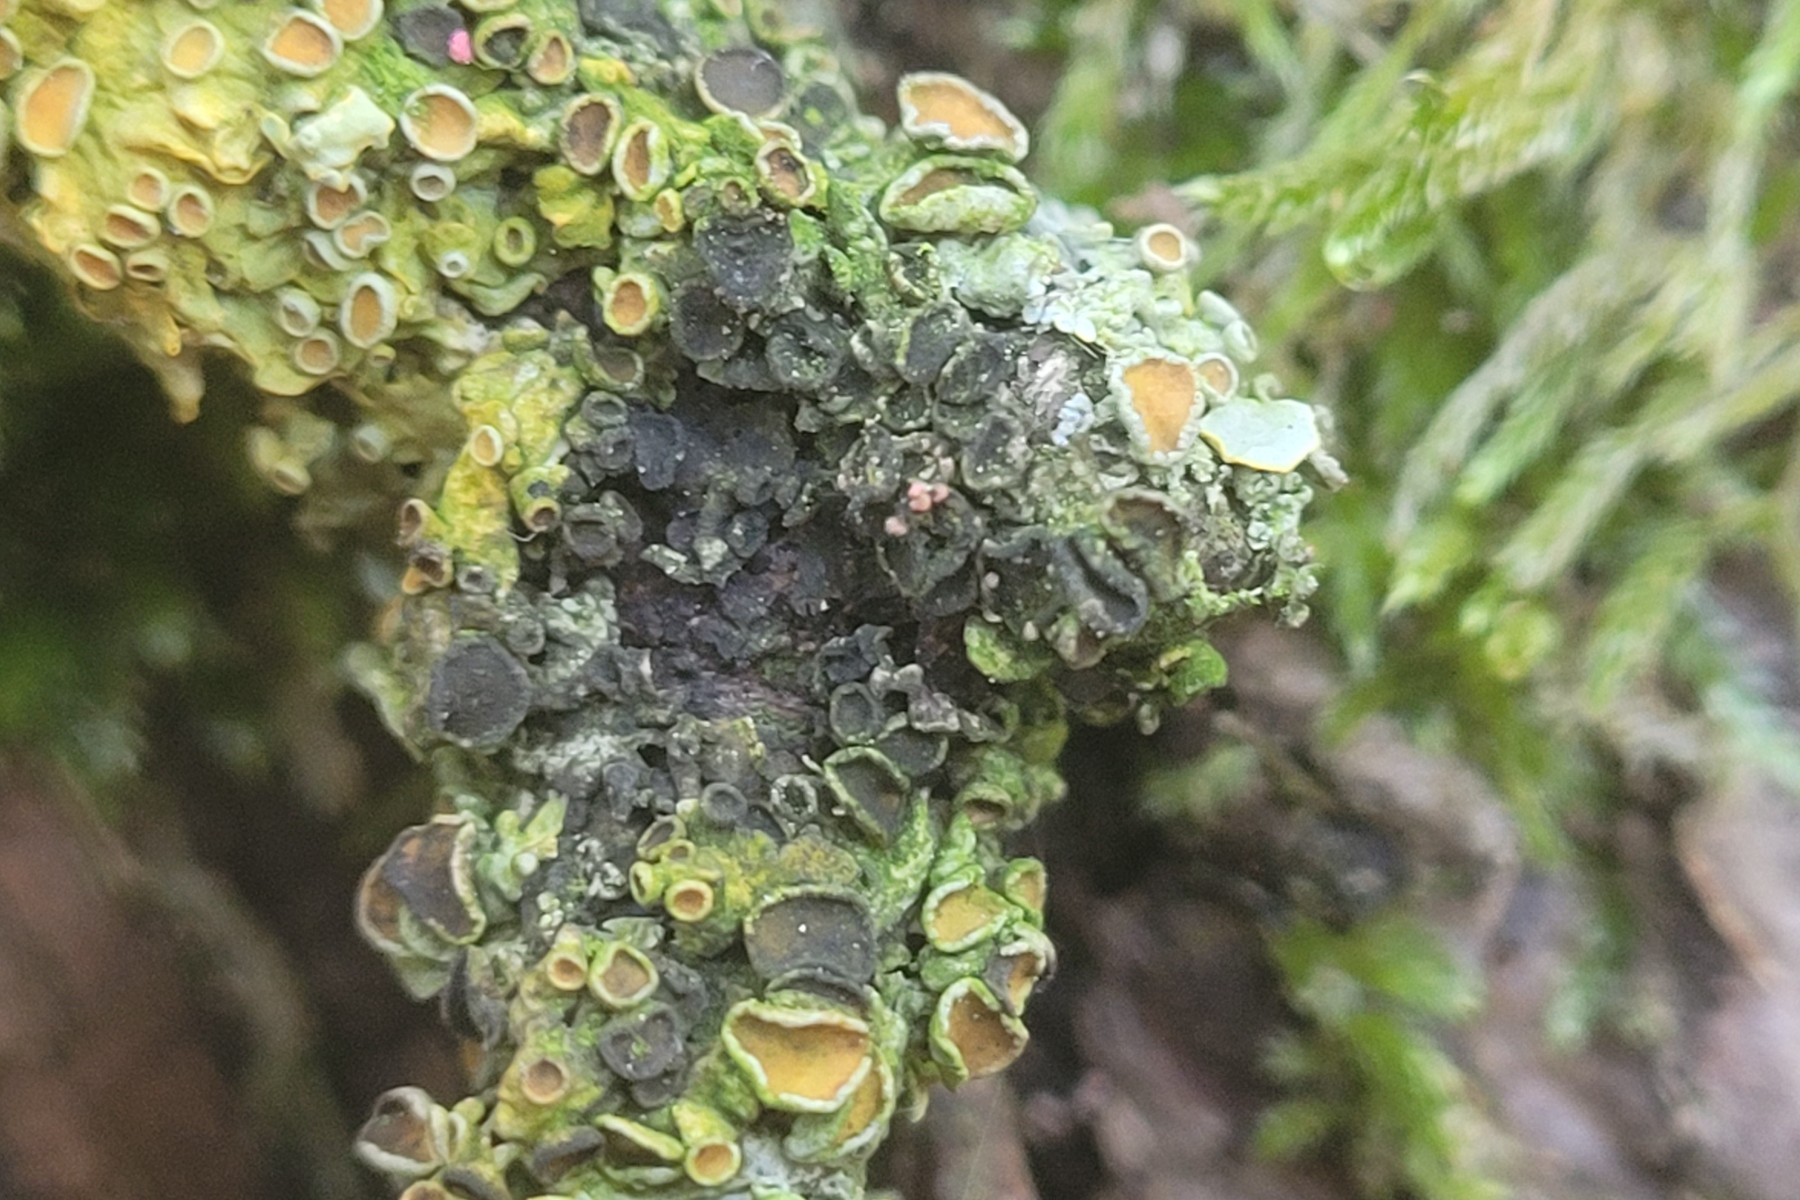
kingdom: Fungi
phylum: Ascomycota
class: Dothideomycetes
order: Mycosphaerellales
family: Teratosphaeriaceae
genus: Xanthoriicola
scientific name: Xanthoriicola physciae
